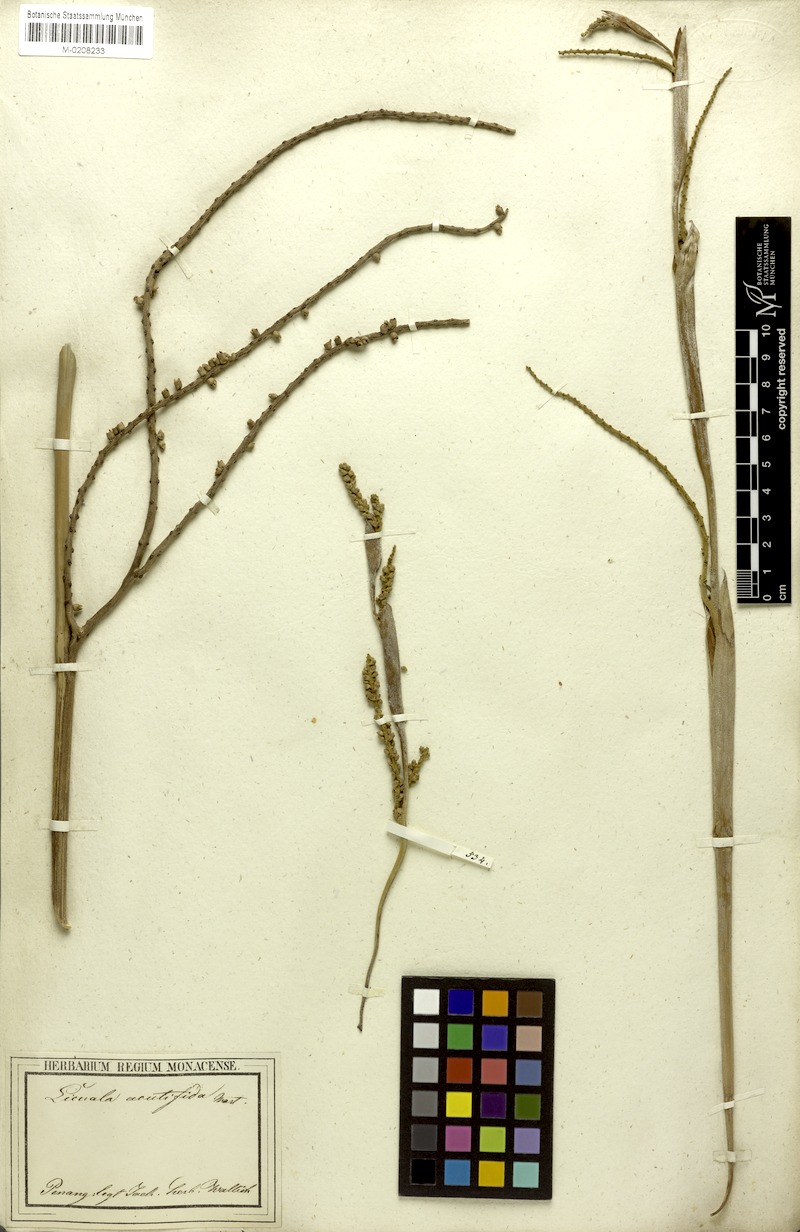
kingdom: Plantae
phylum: Tracheophyta
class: Liliopsida
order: Arecales
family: Arecaceae
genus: Licuala
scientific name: Licuala acutifida
